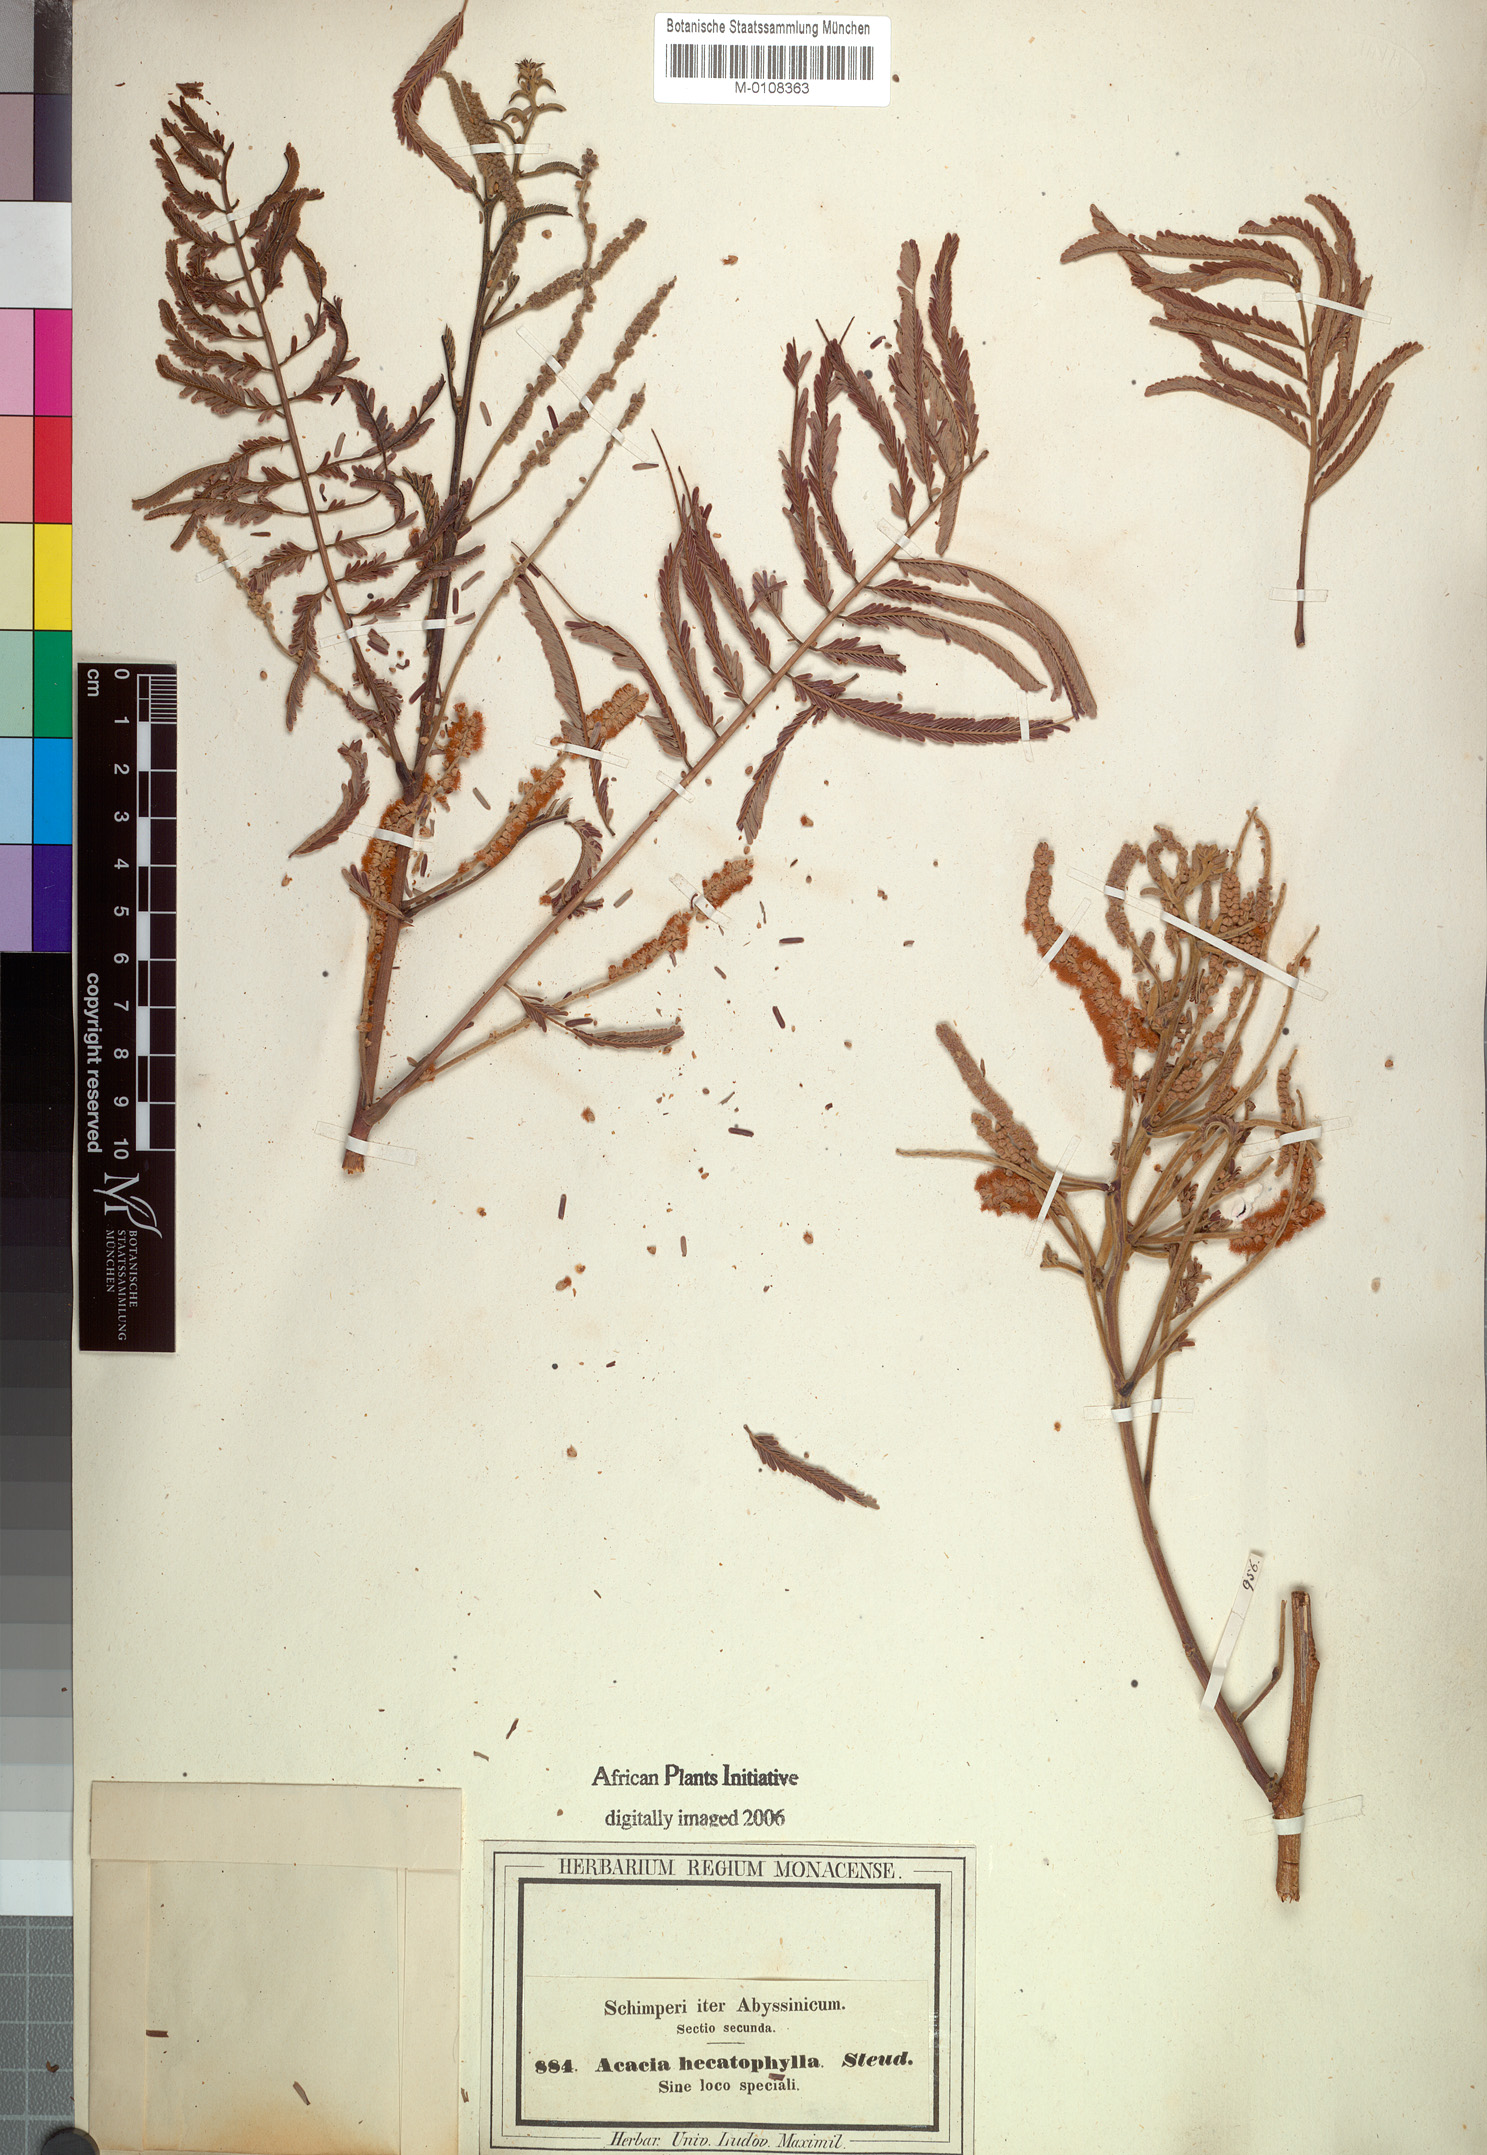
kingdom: Plantae
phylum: Tracheophyta
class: Magnoliopsida
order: Fabales
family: Fabaceae
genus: Senegalia
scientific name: Senegalia hecatophylla
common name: Long pod
